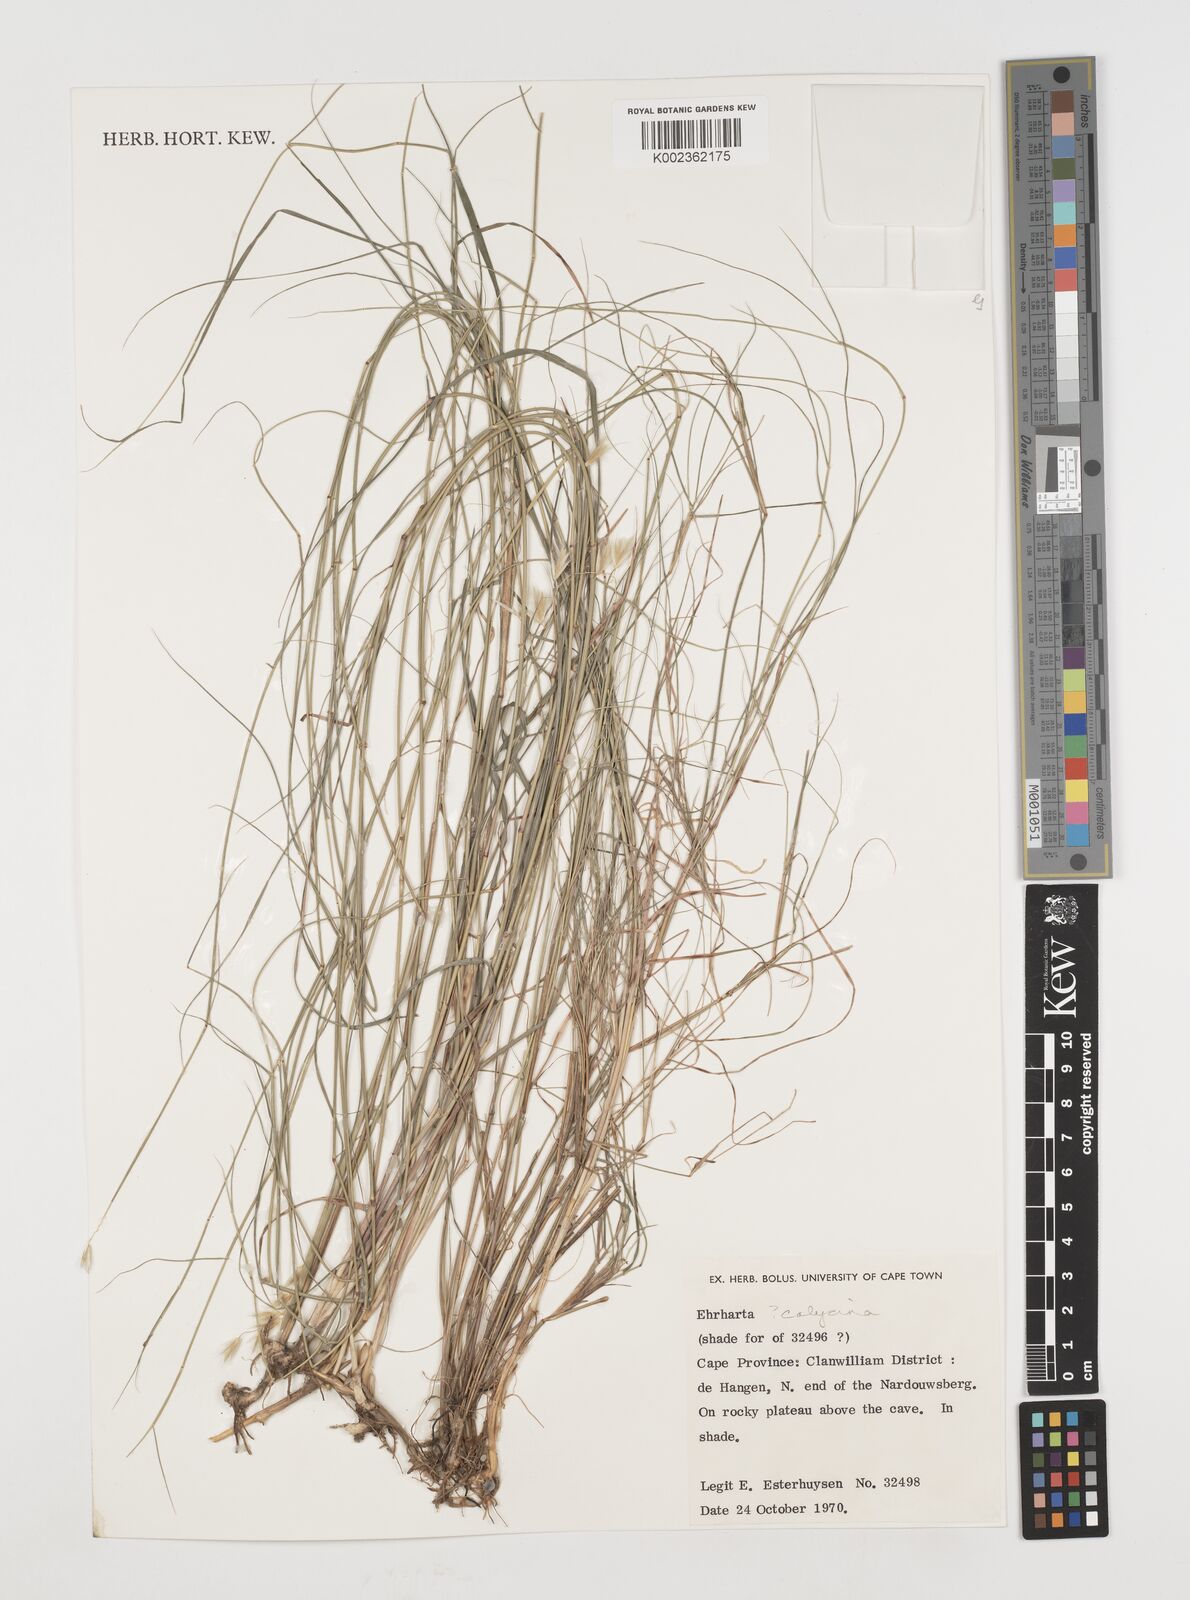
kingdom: Plantae
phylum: Tracheophyta
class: Liliopsida
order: Poales
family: Poaceae
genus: Ehrharta
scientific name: Ehrharta
